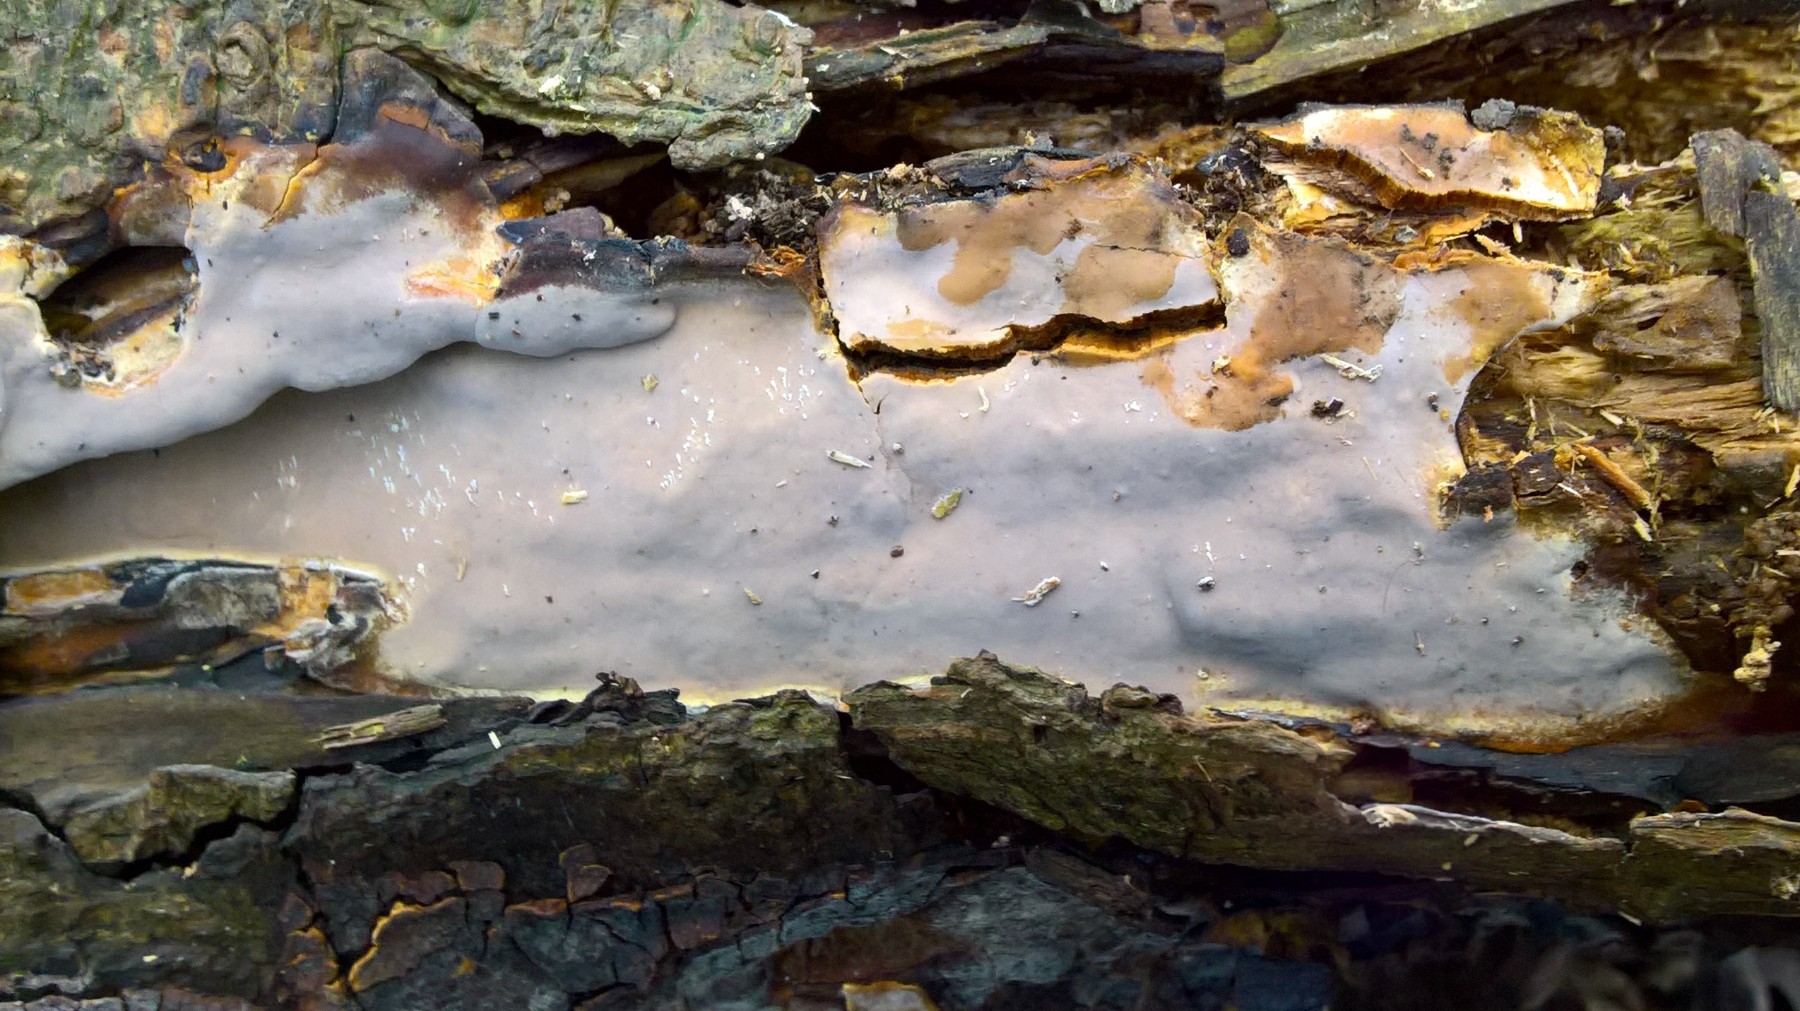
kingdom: Fungi
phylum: Basidiomycota
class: Agaricomycetes
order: Russulales
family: Peniophoraceae
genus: Scytinostroma
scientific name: Scytinostroma hemidichophyticum
